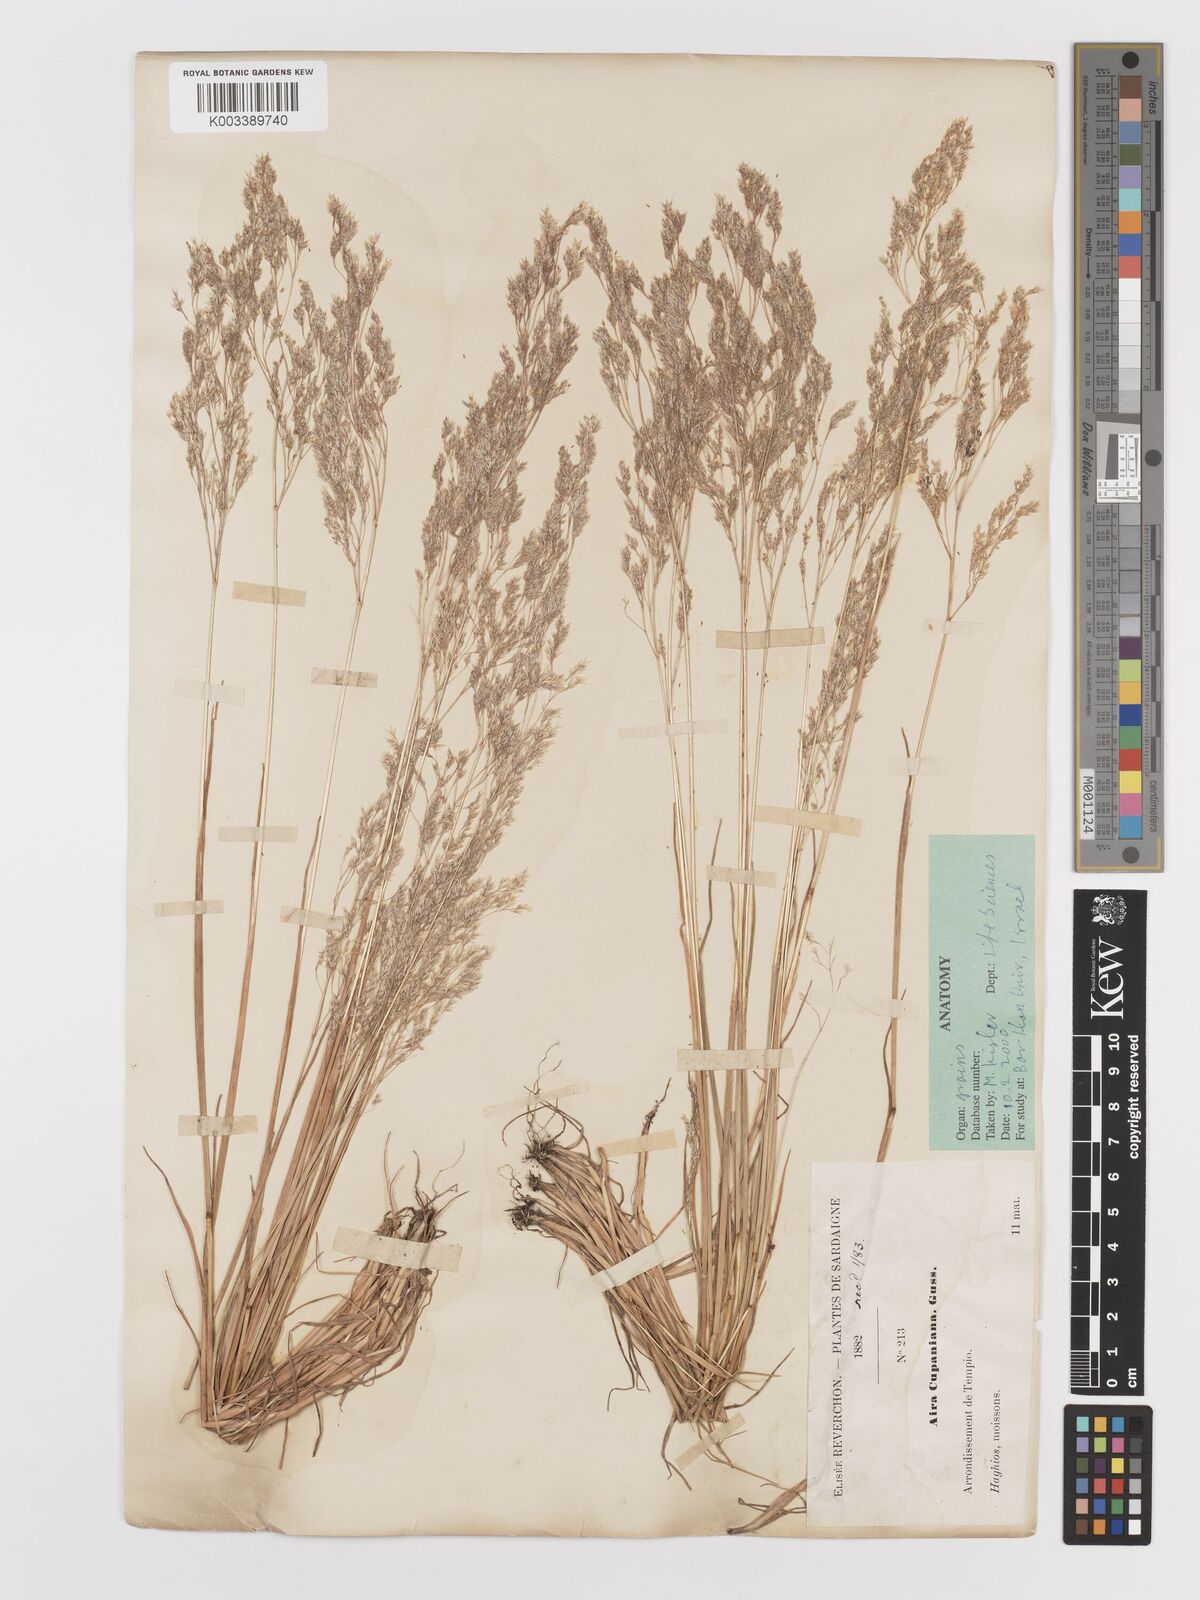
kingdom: Plantae
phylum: Tracheophyta
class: Liliopsida
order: Poales
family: Poaceae
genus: Aira
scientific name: Aira cupaniana
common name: Silver hairgrass
